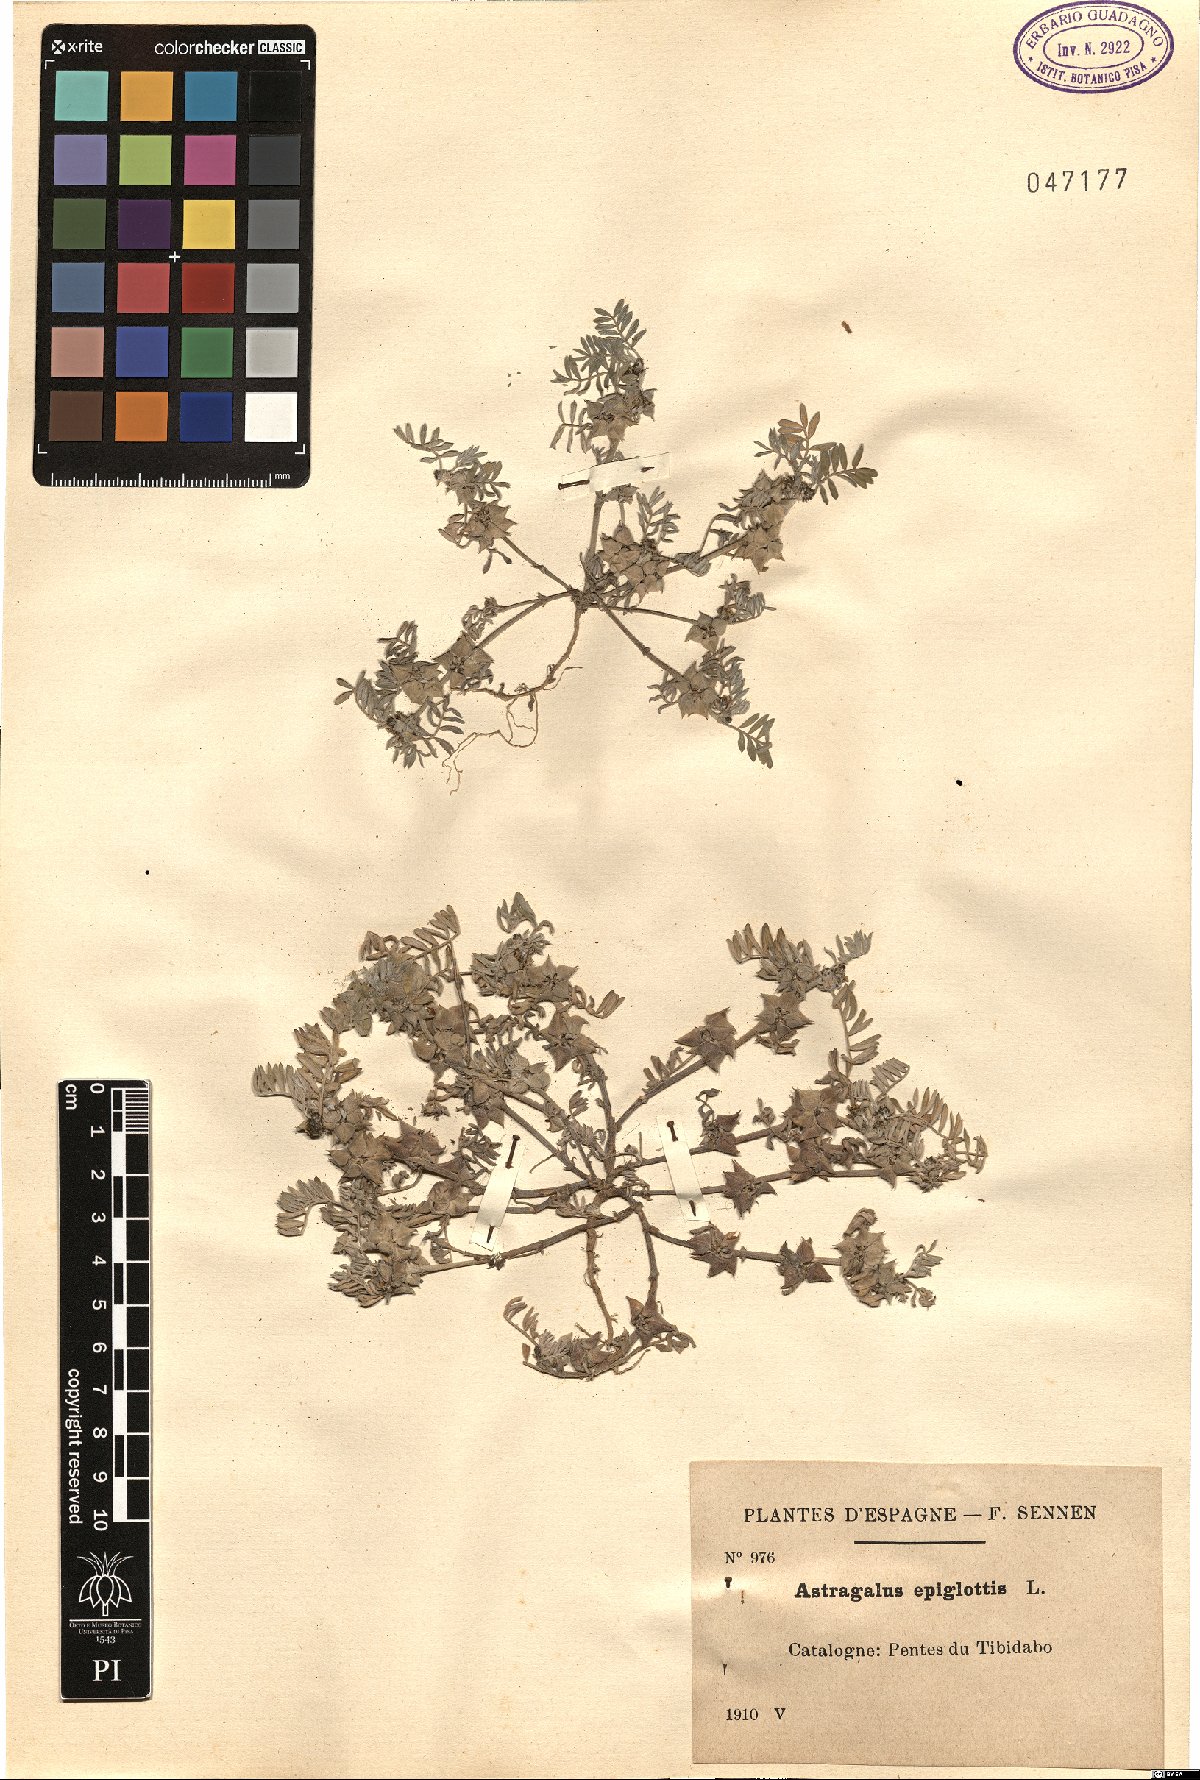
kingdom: Plantae
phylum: Tracheophyta
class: Magnoliopsida
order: Fabales
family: Fabaceae
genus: Biserrula
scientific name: Biserrula epiglottis
